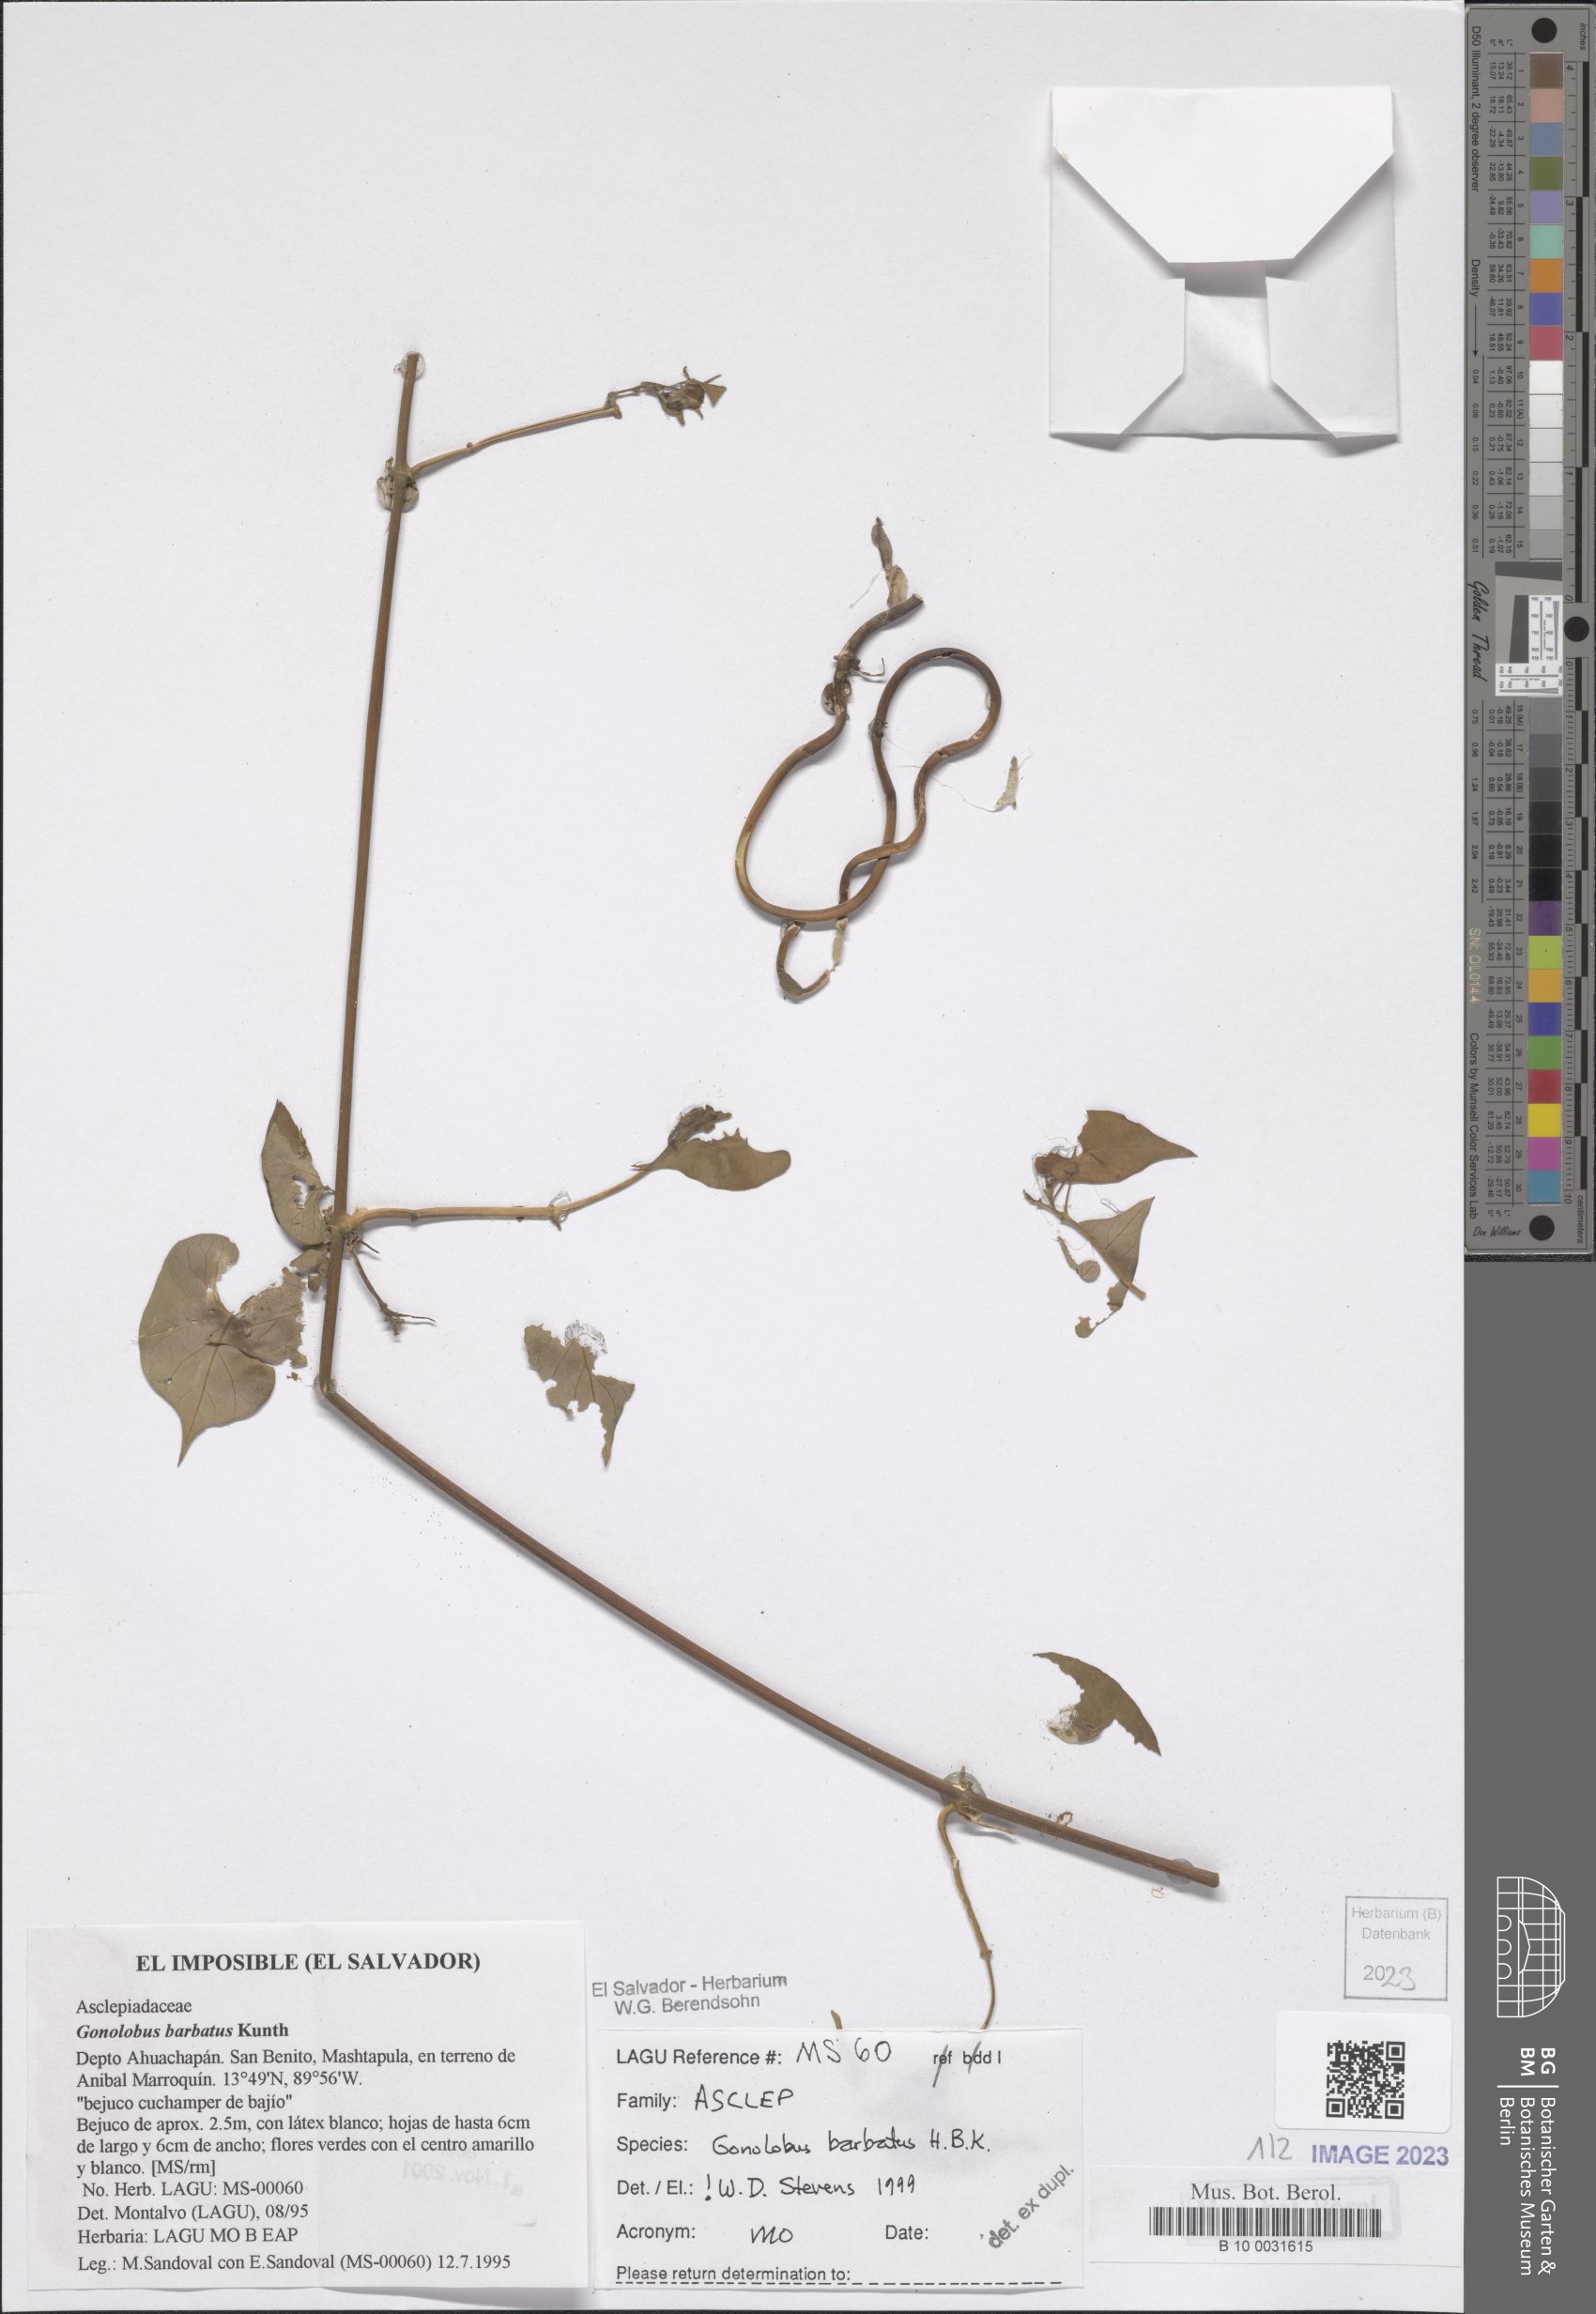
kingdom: Plantae
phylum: Tracheophyta
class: Magnoliopsida
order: Gentianales
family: Apocynaceae
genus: Gonolobus
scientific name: Gonolobus barbatus
